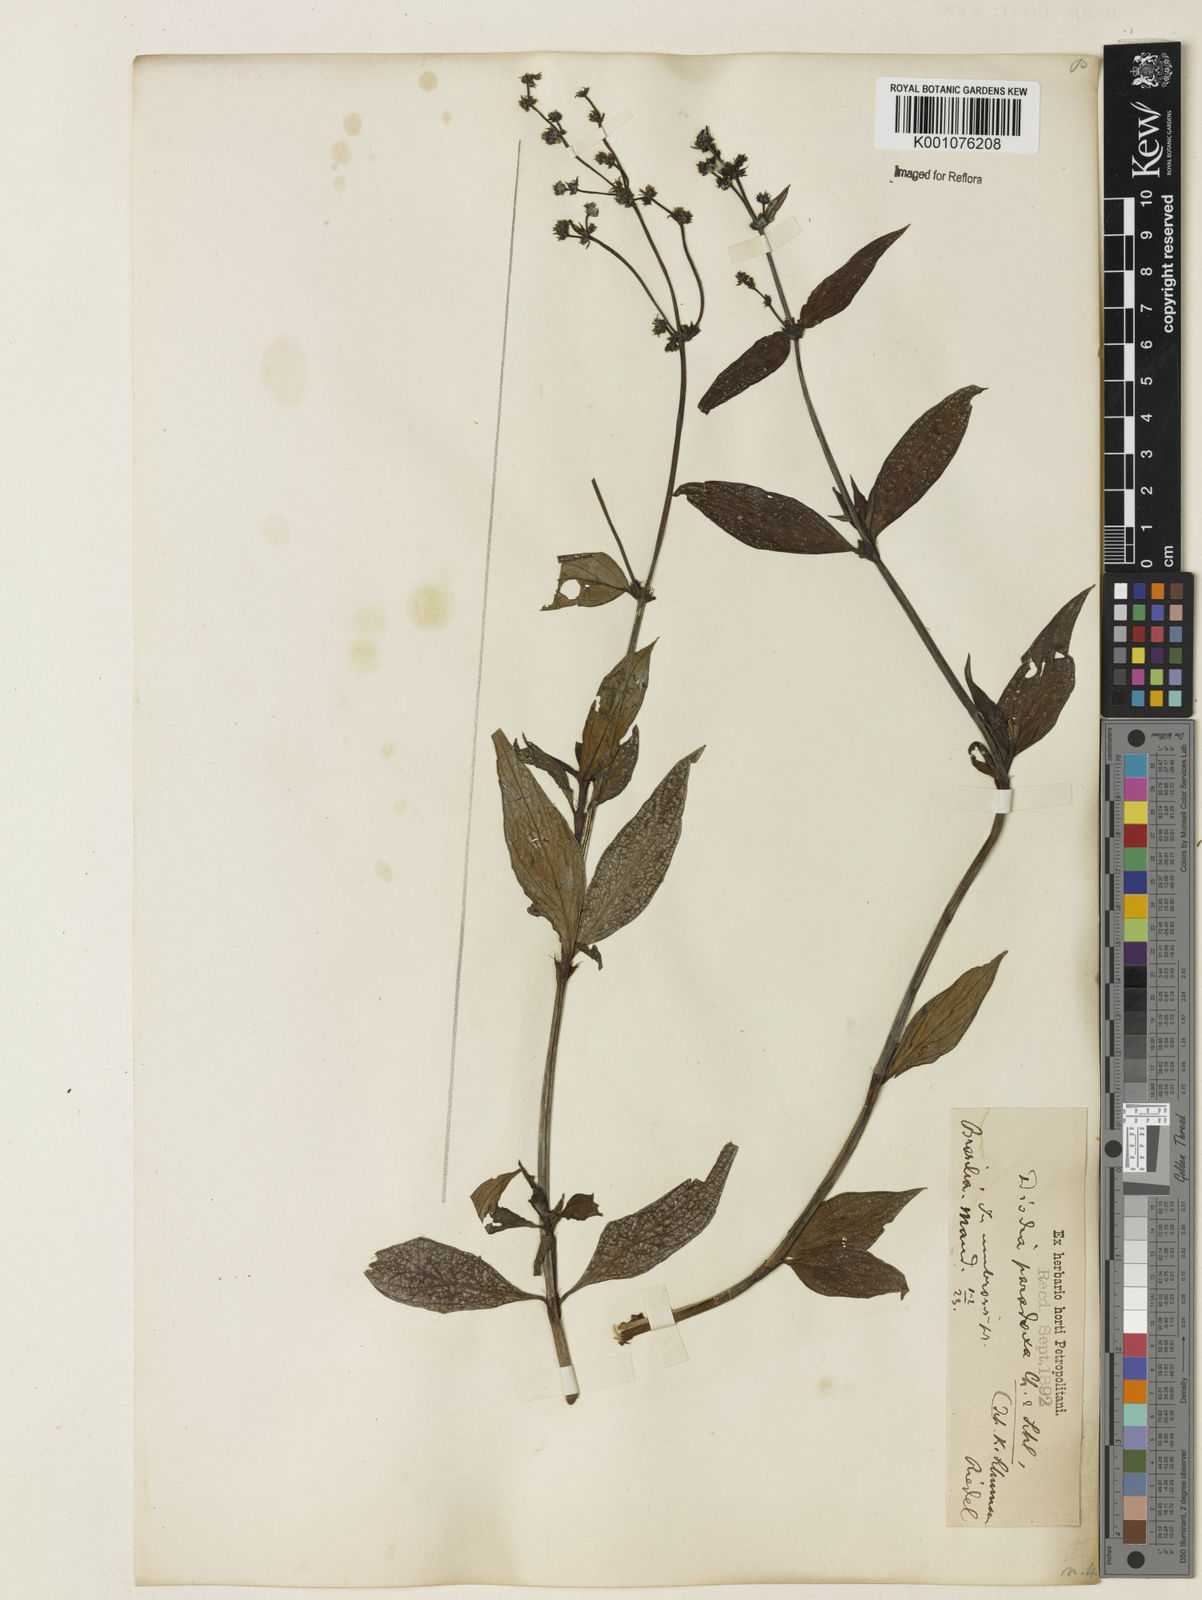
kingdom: Plantae
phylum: Tracheophyta
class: Magnoliopsida
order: Gentianales
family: Rubiaceae
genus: Spermacoce
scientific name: Spermacoce
